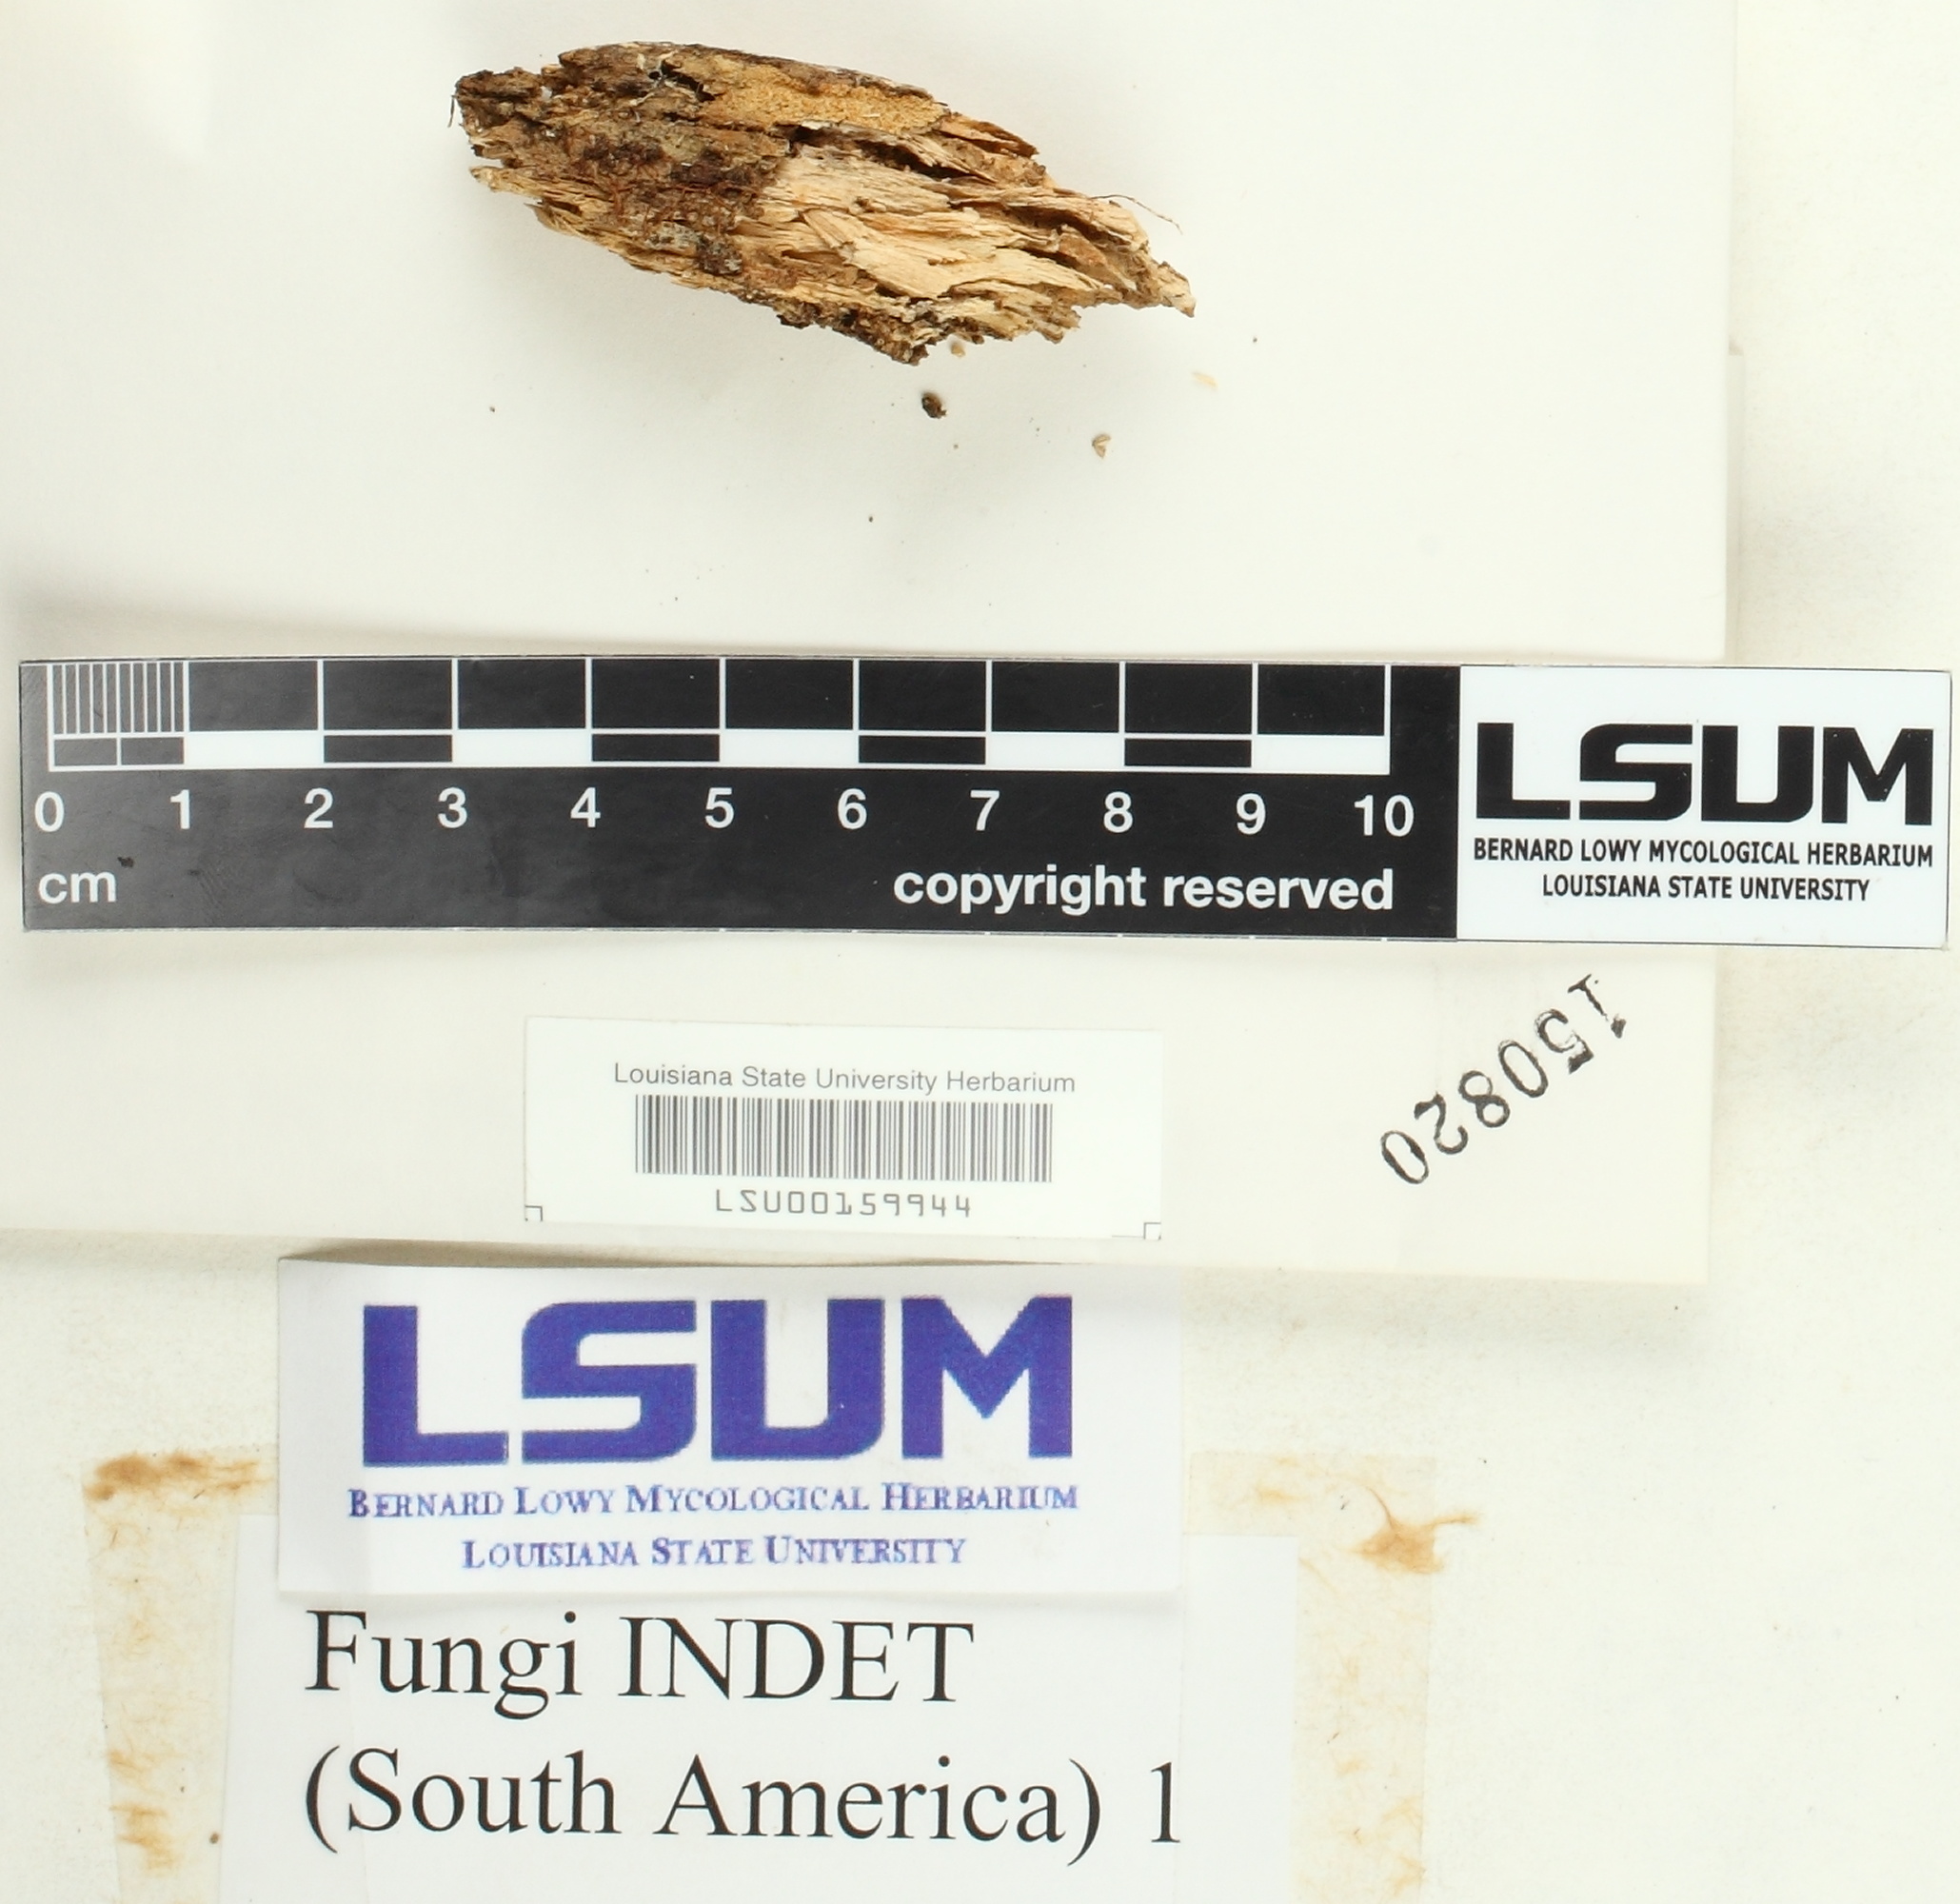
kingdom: Fungi
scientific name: Fungi
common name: Fungi
